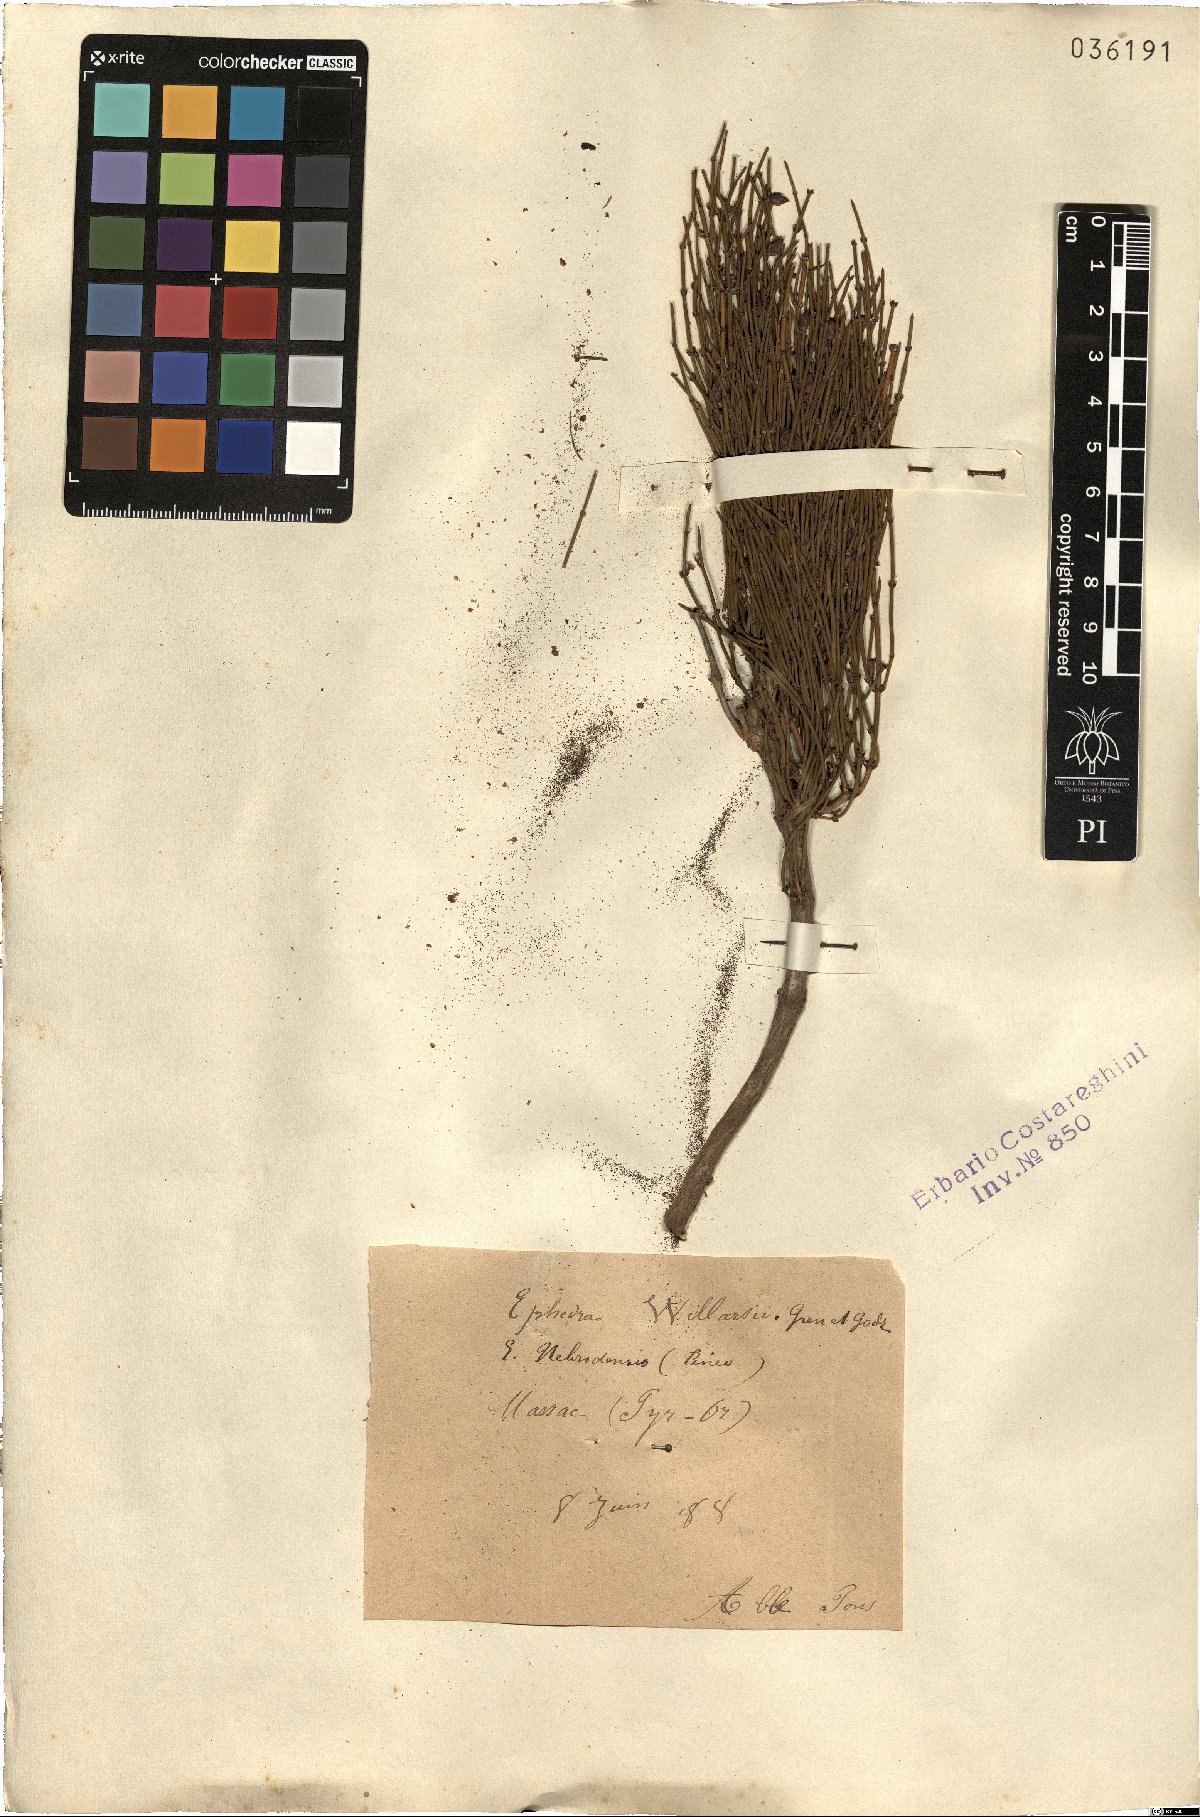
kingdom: Plantae
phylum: Tracheophyta
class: Gnetopsida
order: Ephedrales
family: Ephedraceae
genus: Ephedra
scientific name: Ephedra foeminea
